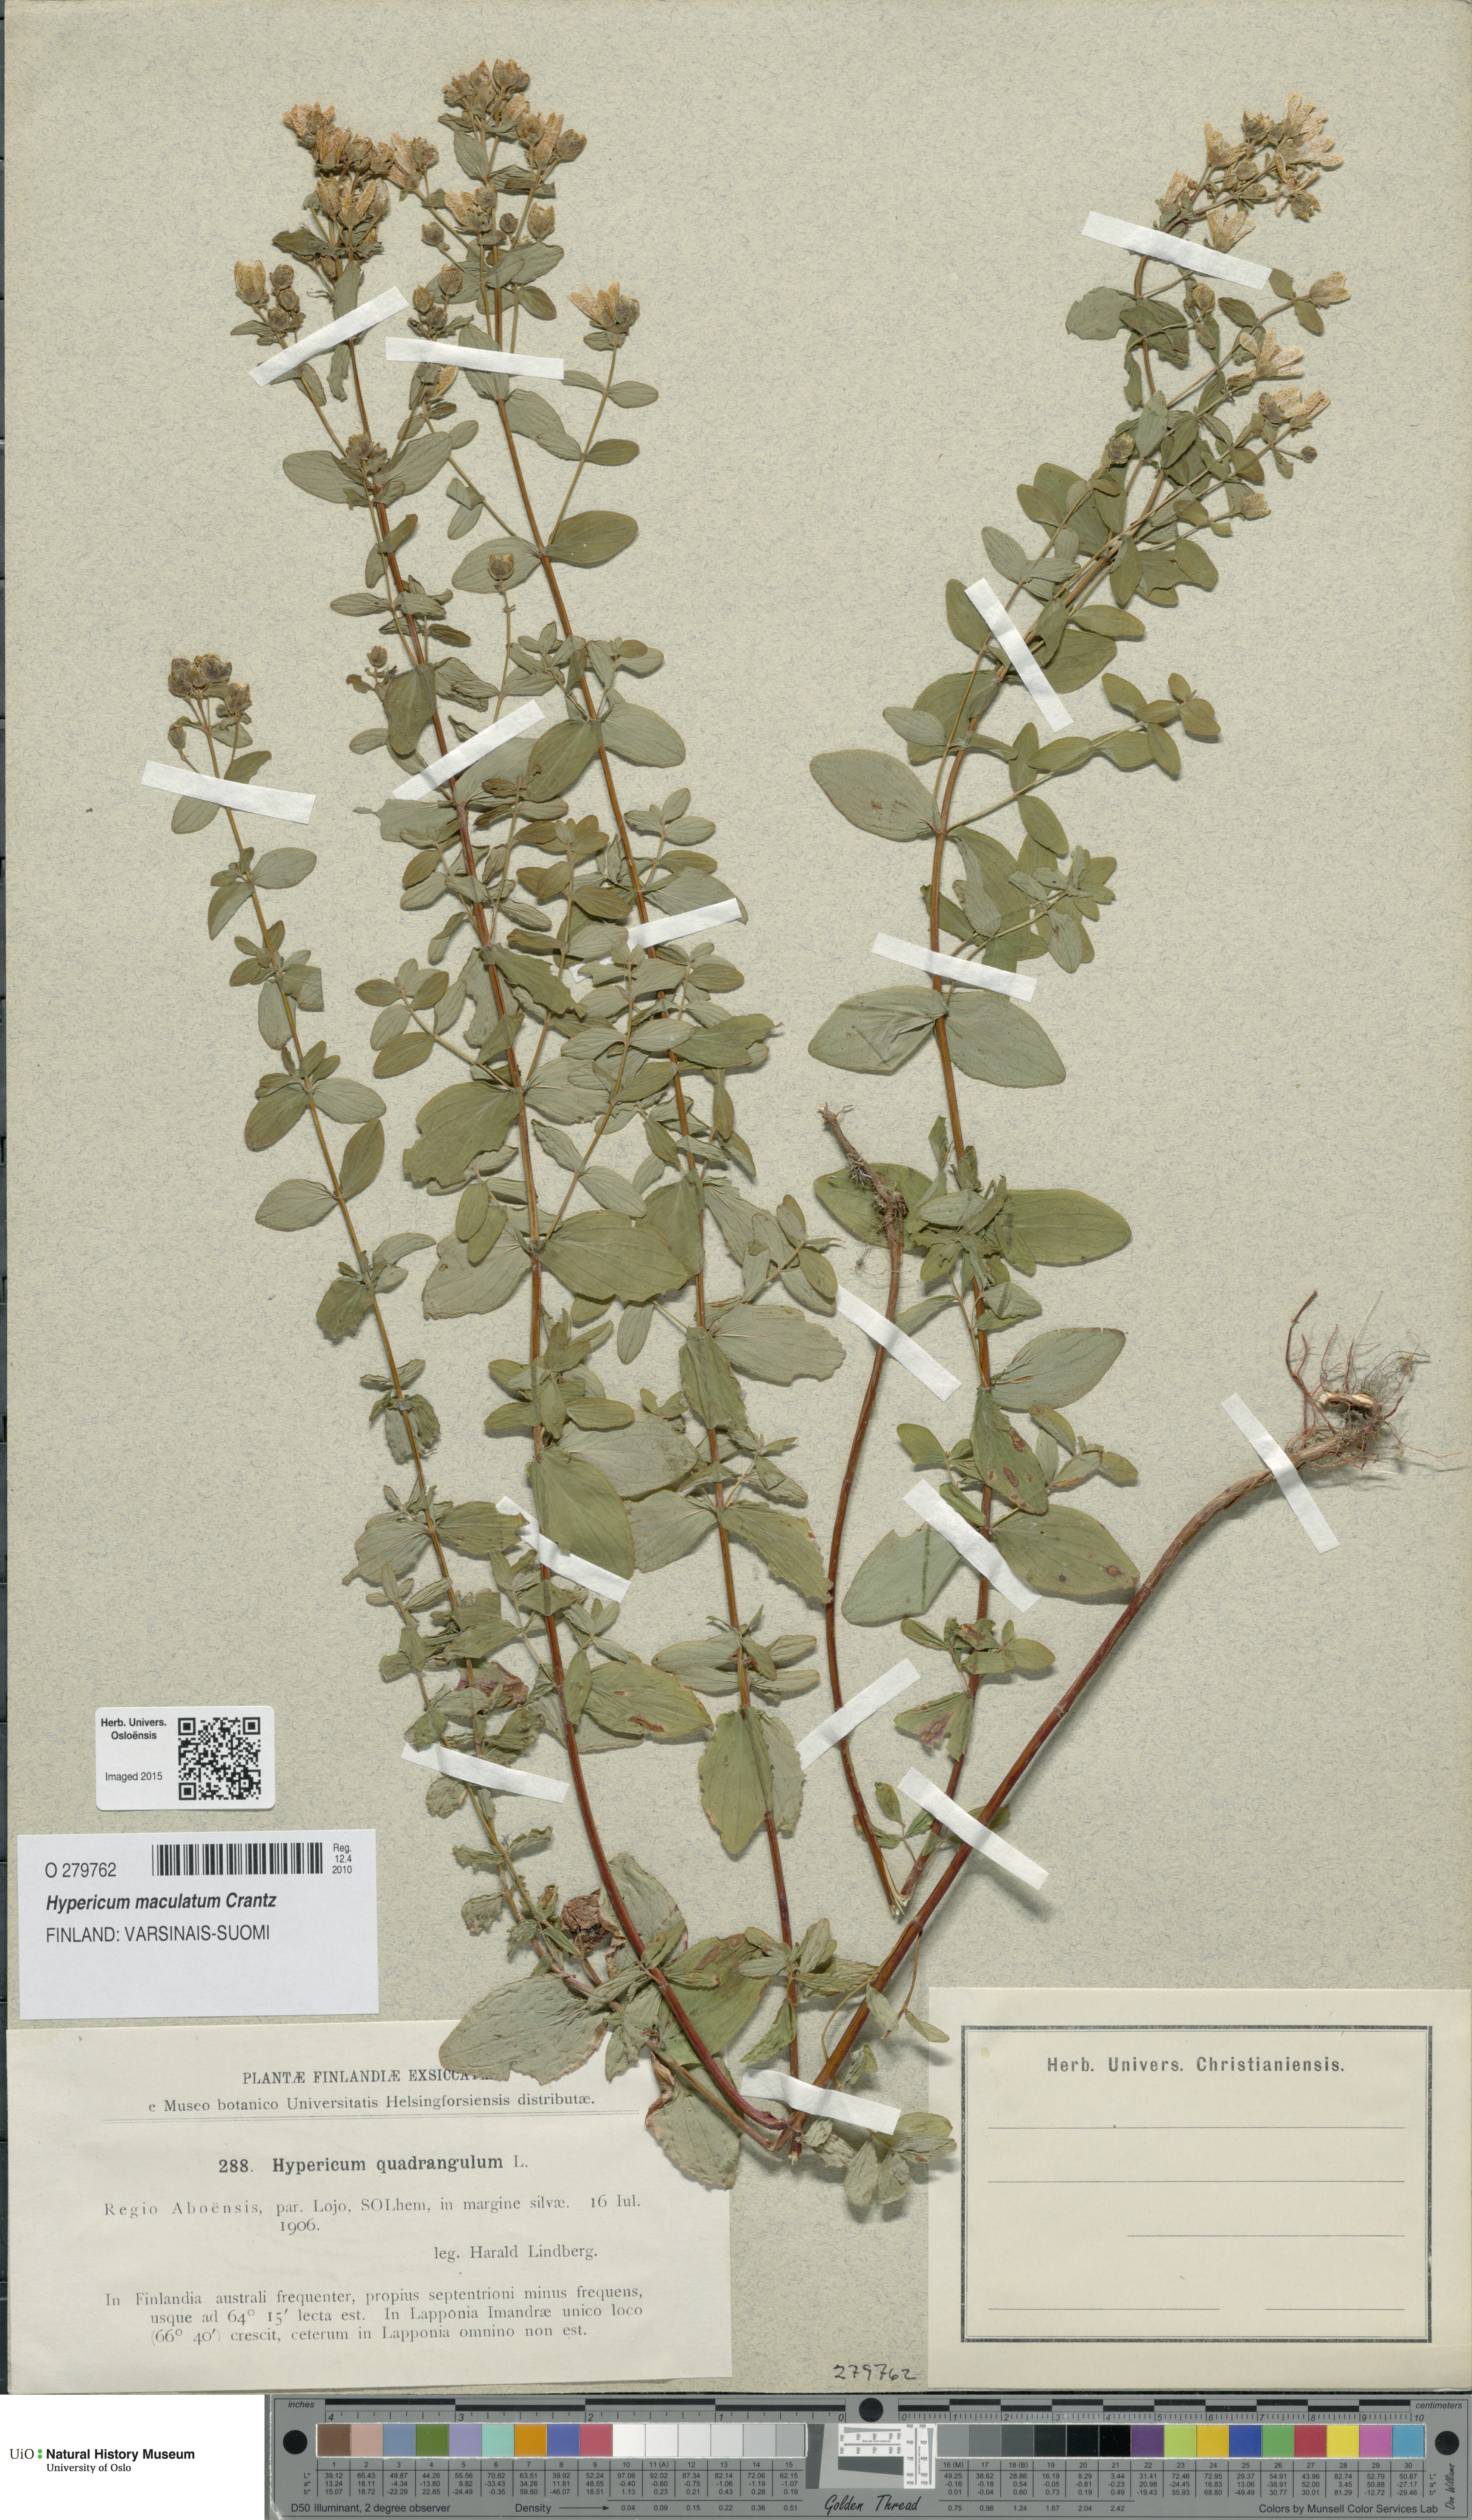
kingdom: Plantae
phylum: Tracheophyta
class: Magnoliopsida
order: Malpighiales
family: Hypericaceae
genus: Hypericum
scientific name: Hypericum maculatum
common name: Imperforate st. john's-wort
